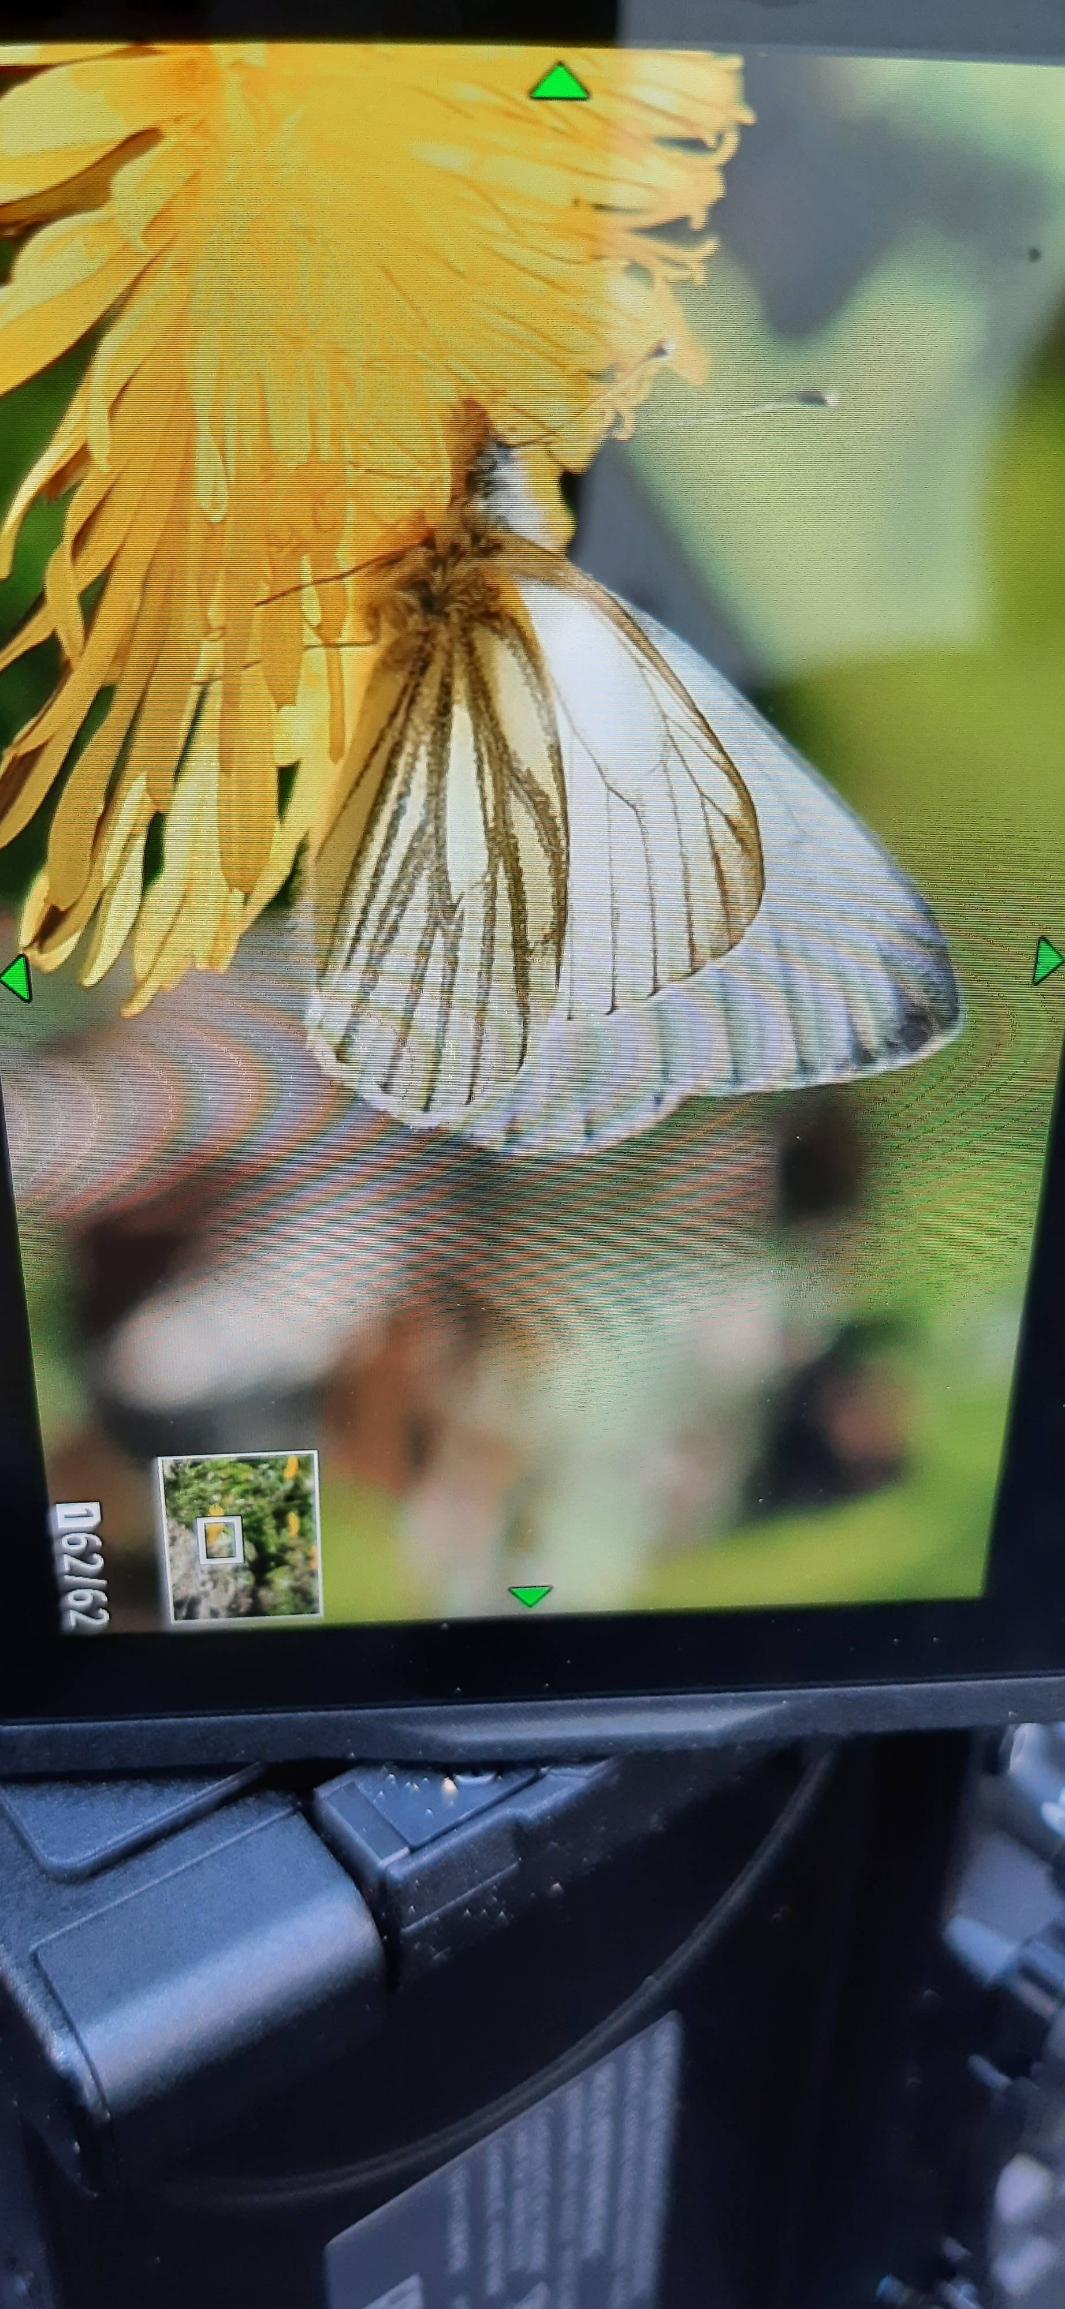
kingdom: Animalia
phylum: Arthropoda
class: Insecta
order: Lepidoptera
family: Pieridae
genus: Pieris
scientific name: Pieris napi
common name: Grønåret kålsommerfugl
